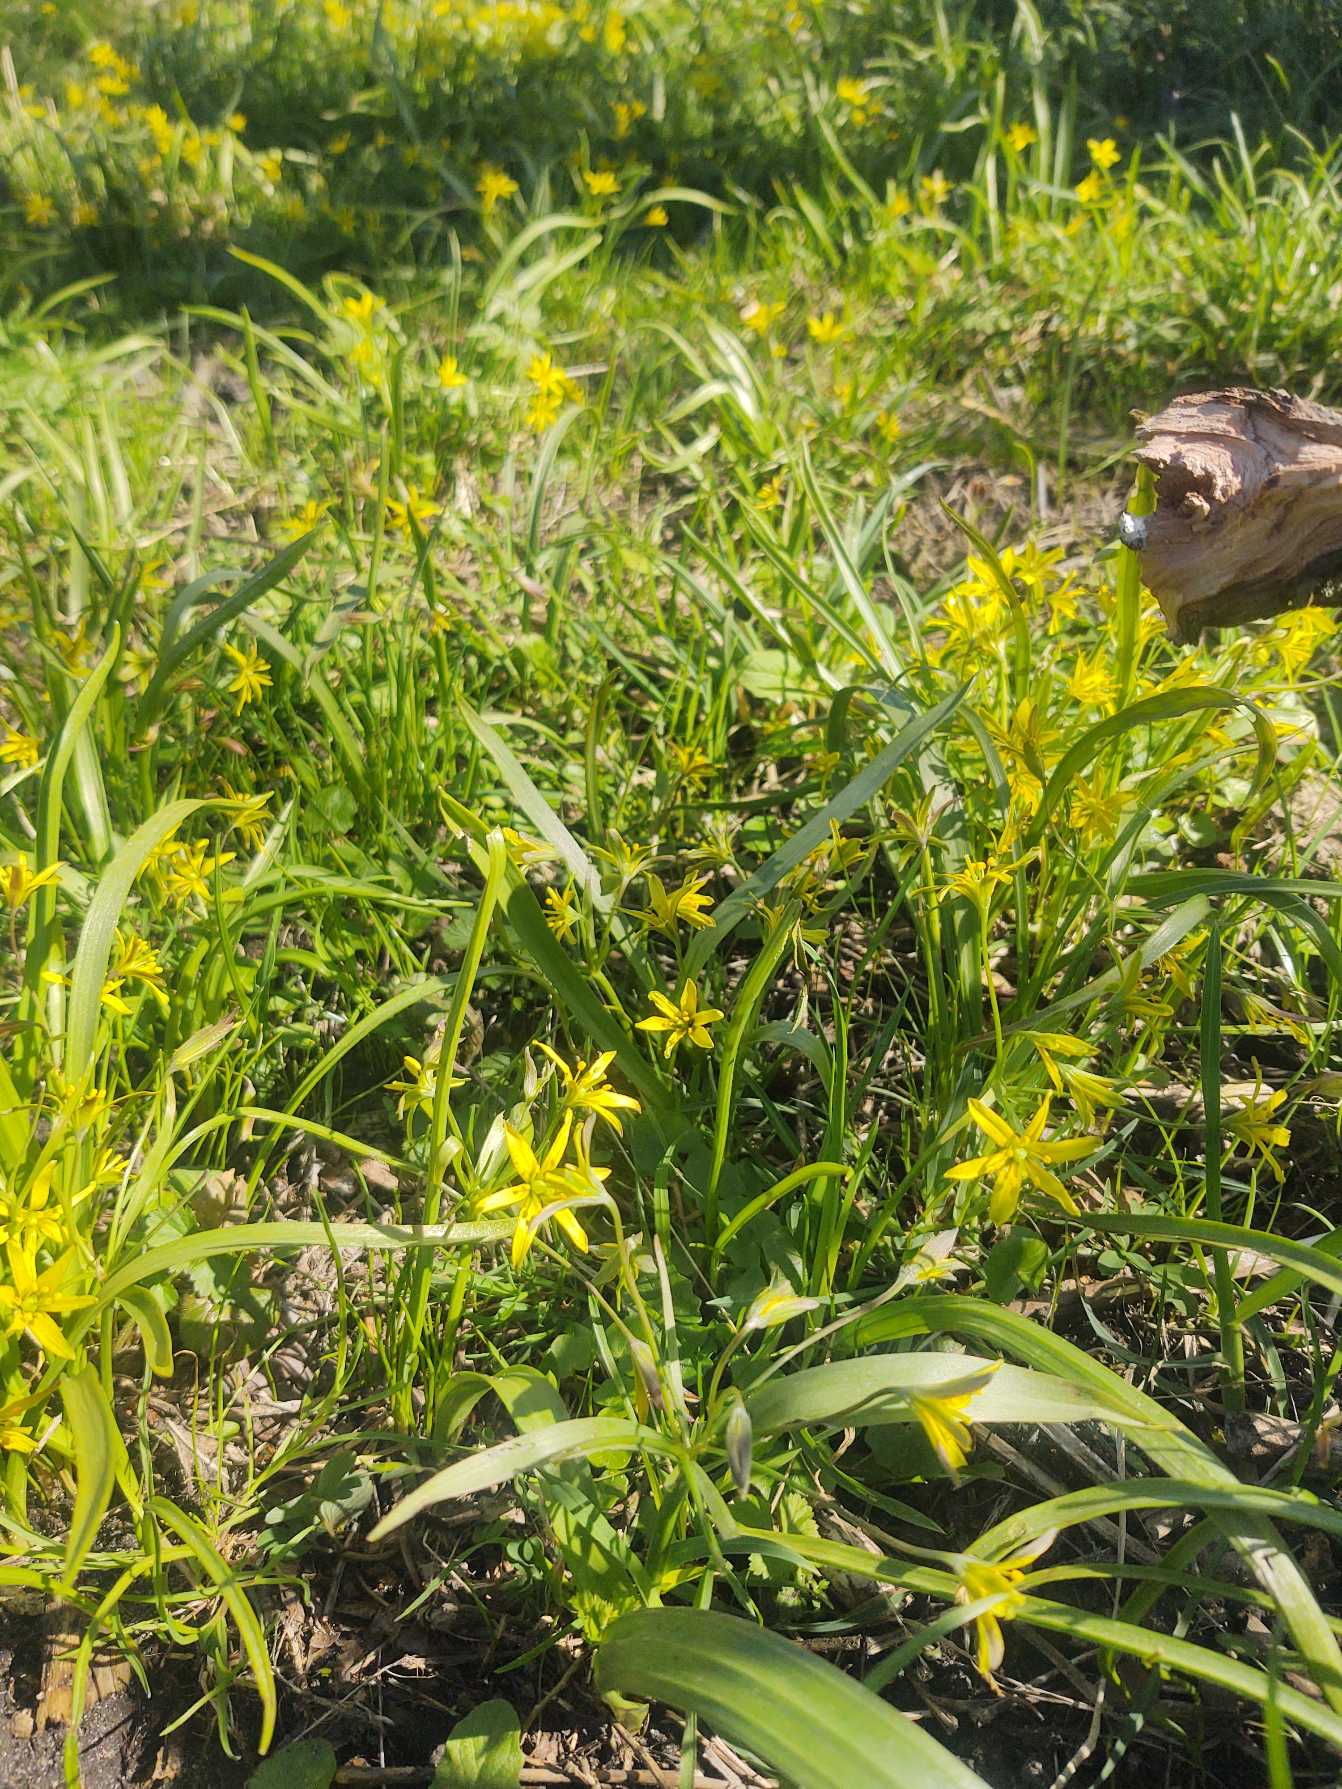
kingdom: Plantae
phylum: Tracheophyta
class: Liliopsida
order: Liliales
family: Liliaceae
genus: Gagea
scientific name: Gagea lutea
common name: Almindelig guldstjerne
